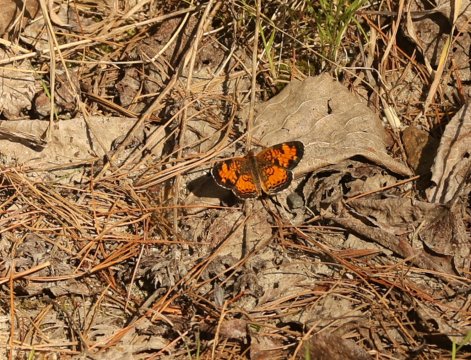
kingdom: Animalia
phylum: Arthropoda
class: Insecta
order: Lepidoptera
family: Nymphalidae
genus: Phyciodes
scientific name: Phyciodes
